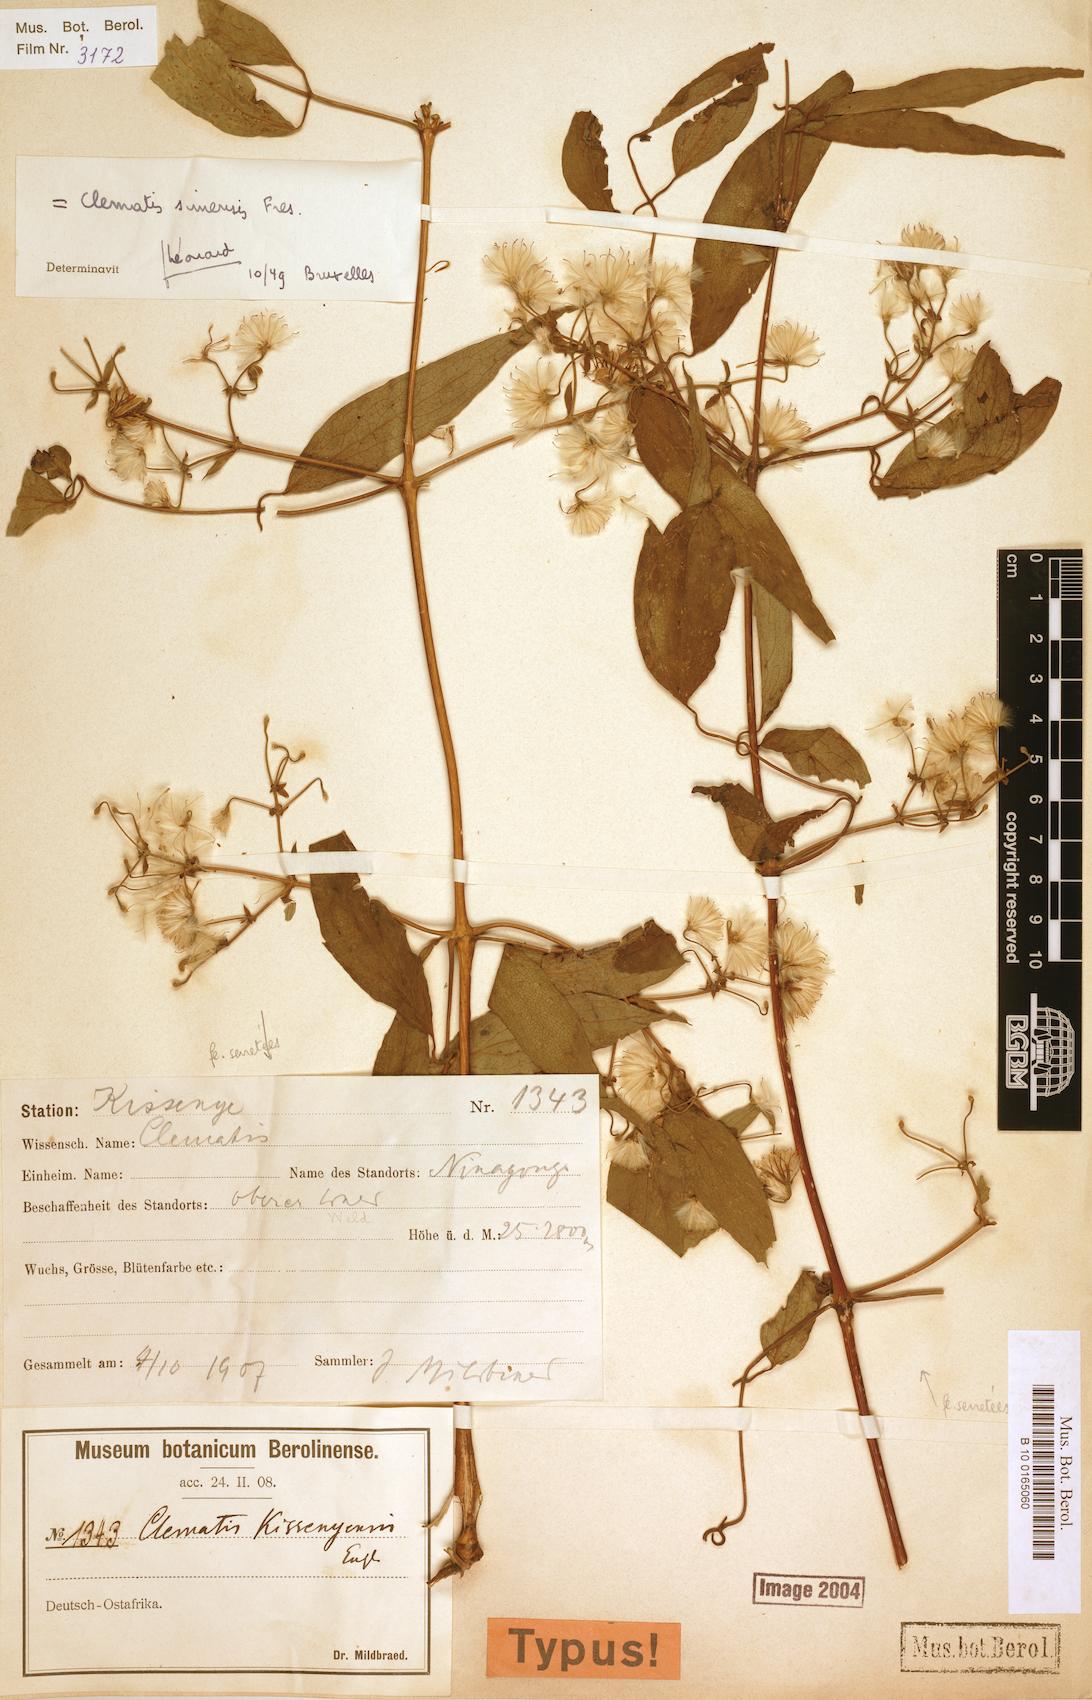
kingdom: Plantae
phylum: Tracheophyta
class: Magnoliopsida
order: Ranunculales
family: Ranunculaceae
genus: Clematis
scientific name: Clematis simensis
